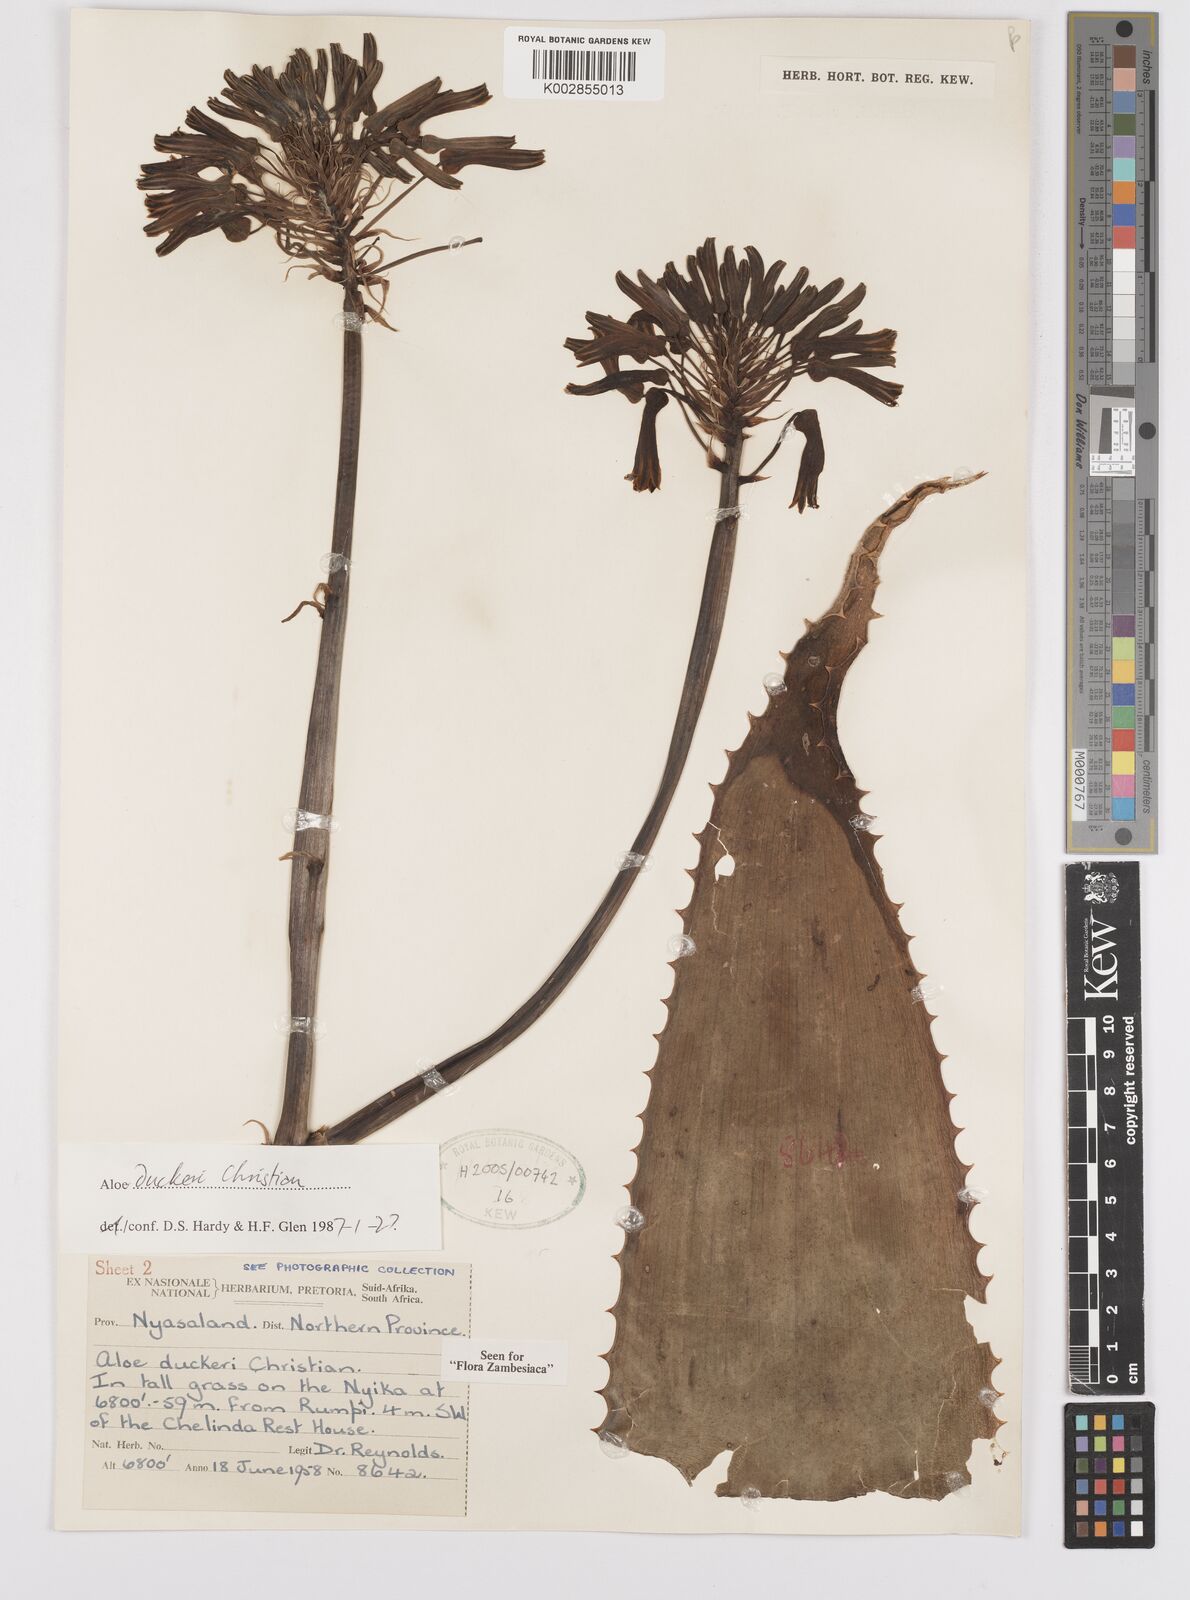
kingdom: Plantae
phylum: Tracheophyta
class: Liliopsida
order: Asparagales
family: Asphodelaceae
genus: Aloe
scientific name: Aloe duckeri
